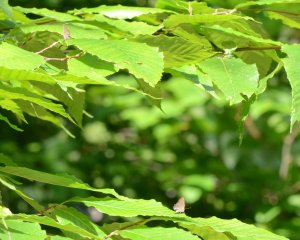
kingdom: Animalia
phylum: Arthropoda
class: Insecta
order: Lepidoptera
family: Lycaenidae
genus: Strymon
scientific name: Strymon caryaevorus
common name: Hickory Hairstreak
